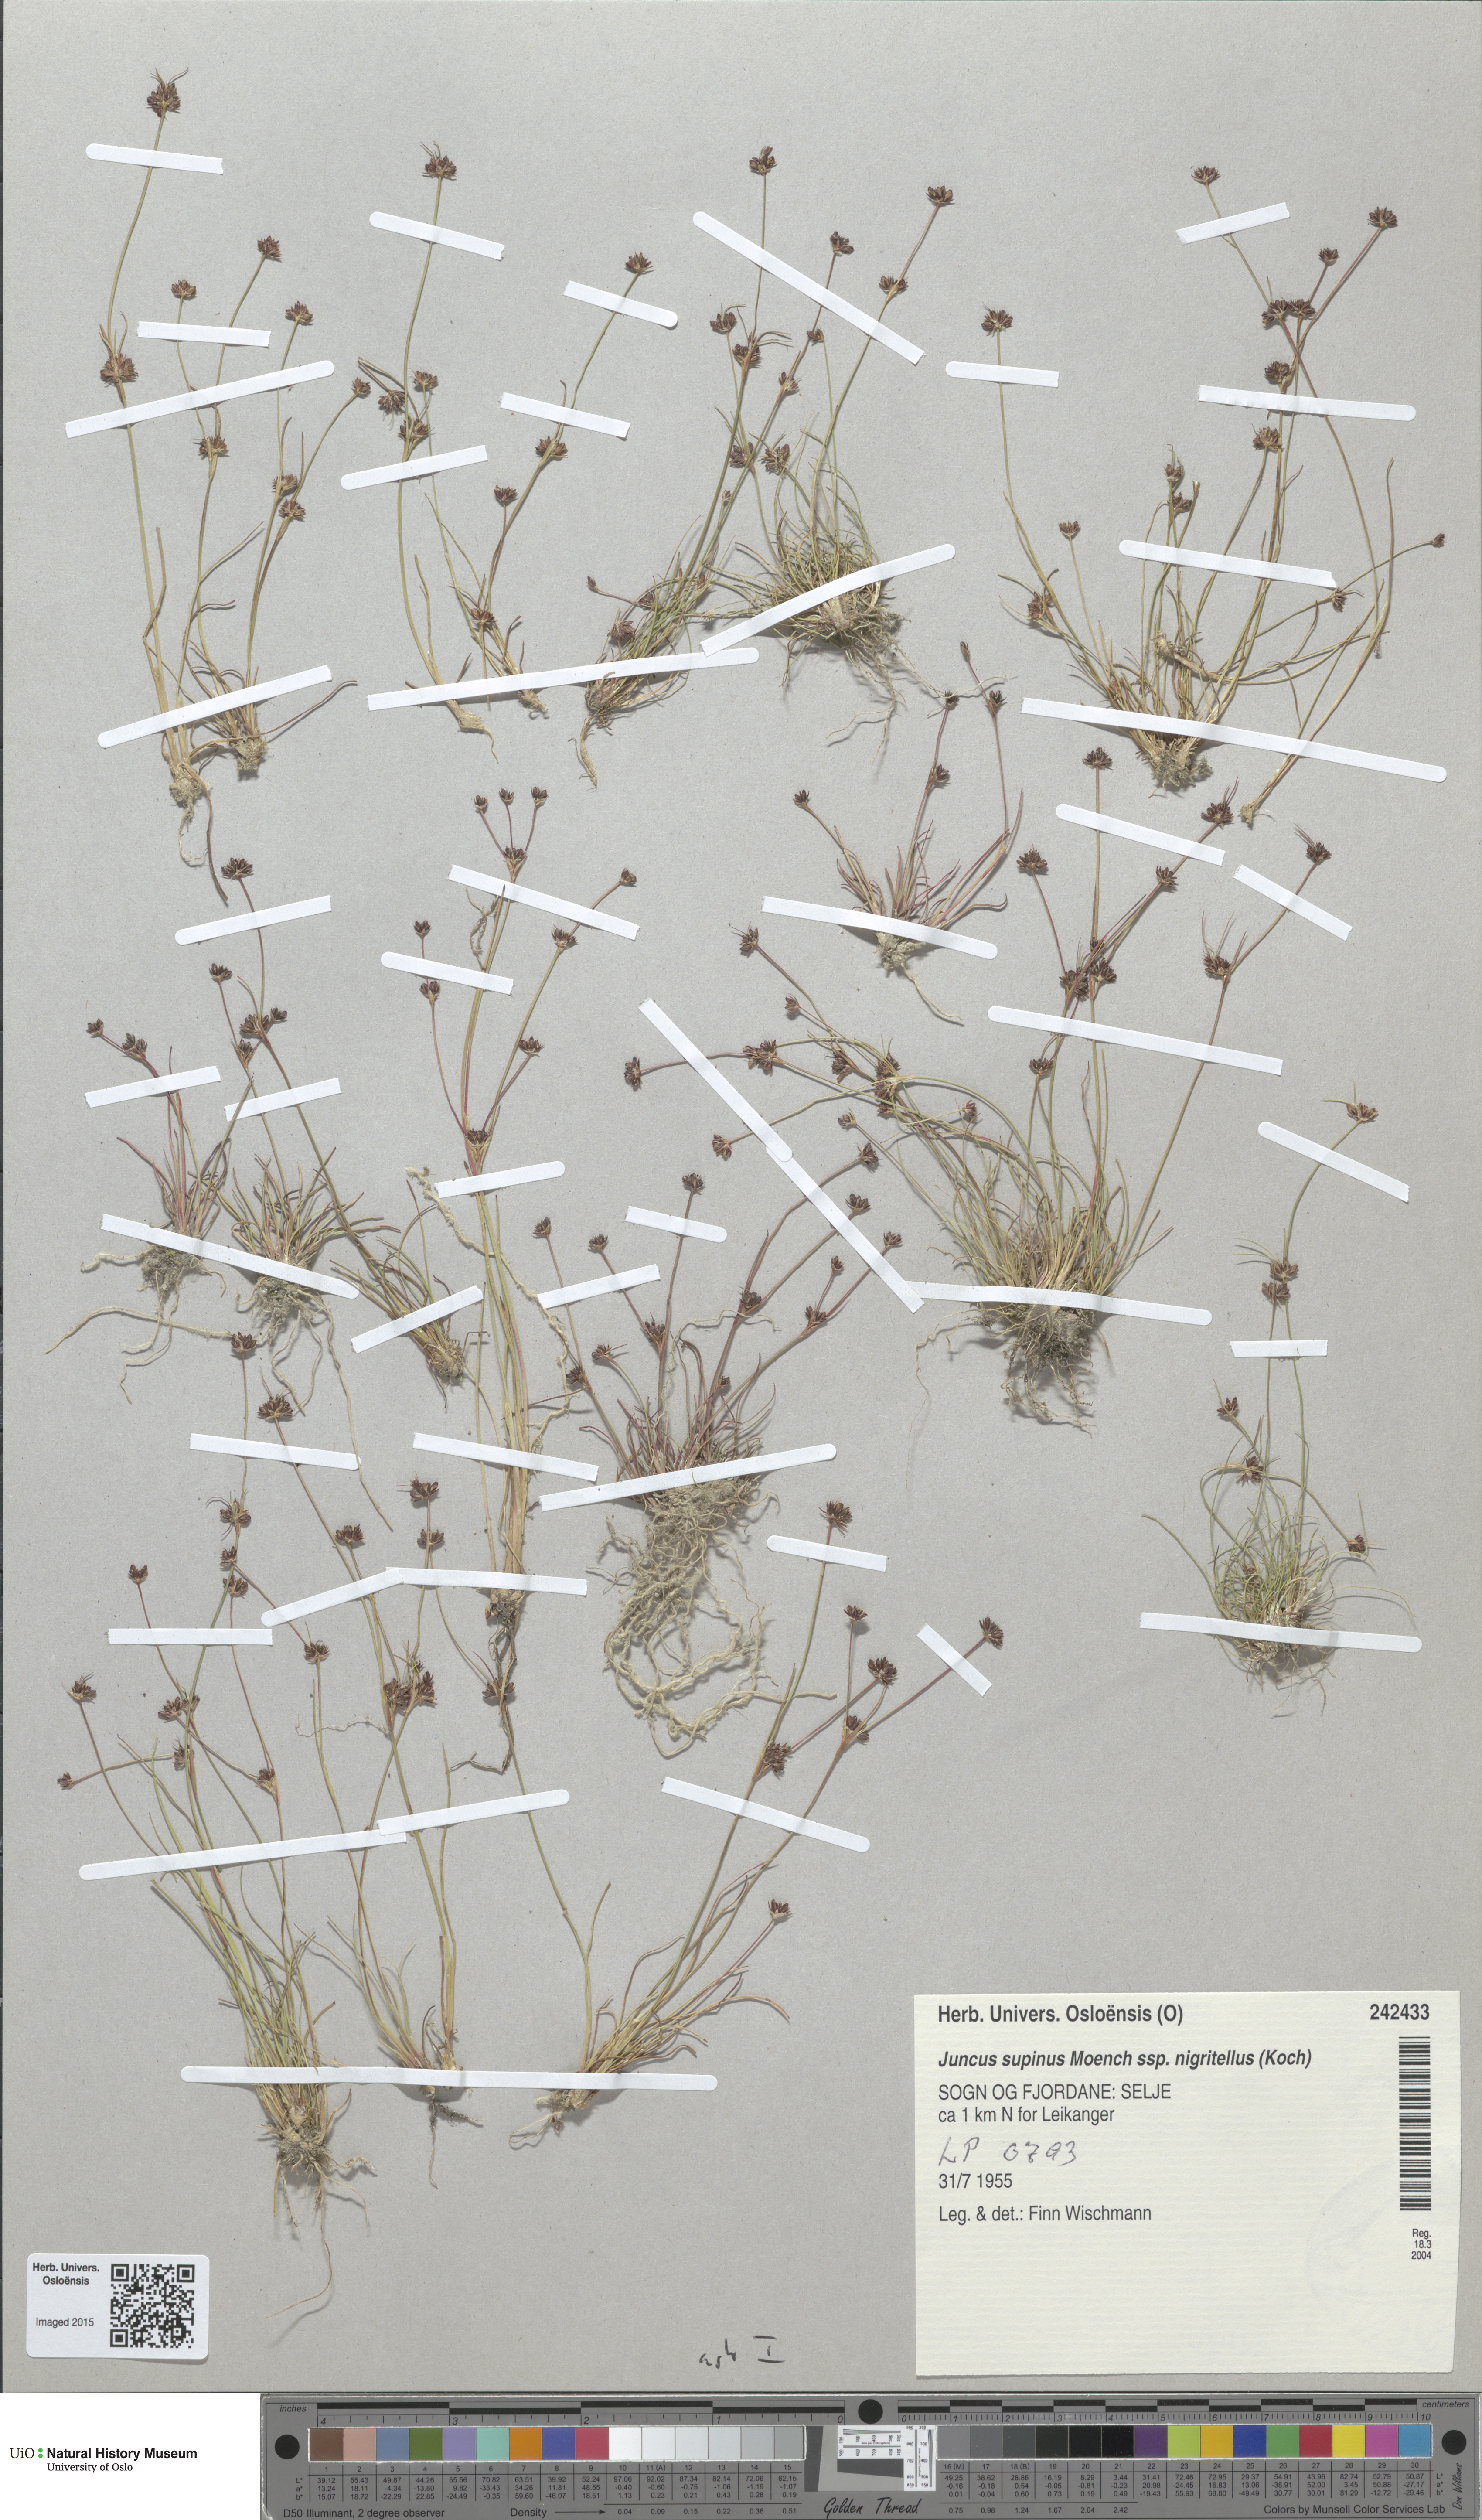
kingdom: Plantae
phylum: Tracheophyta
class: Liliopsida
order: Poales
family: Juncaceae
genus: Juncus
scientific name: Juncus bulbosus
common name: Bulbous rush
